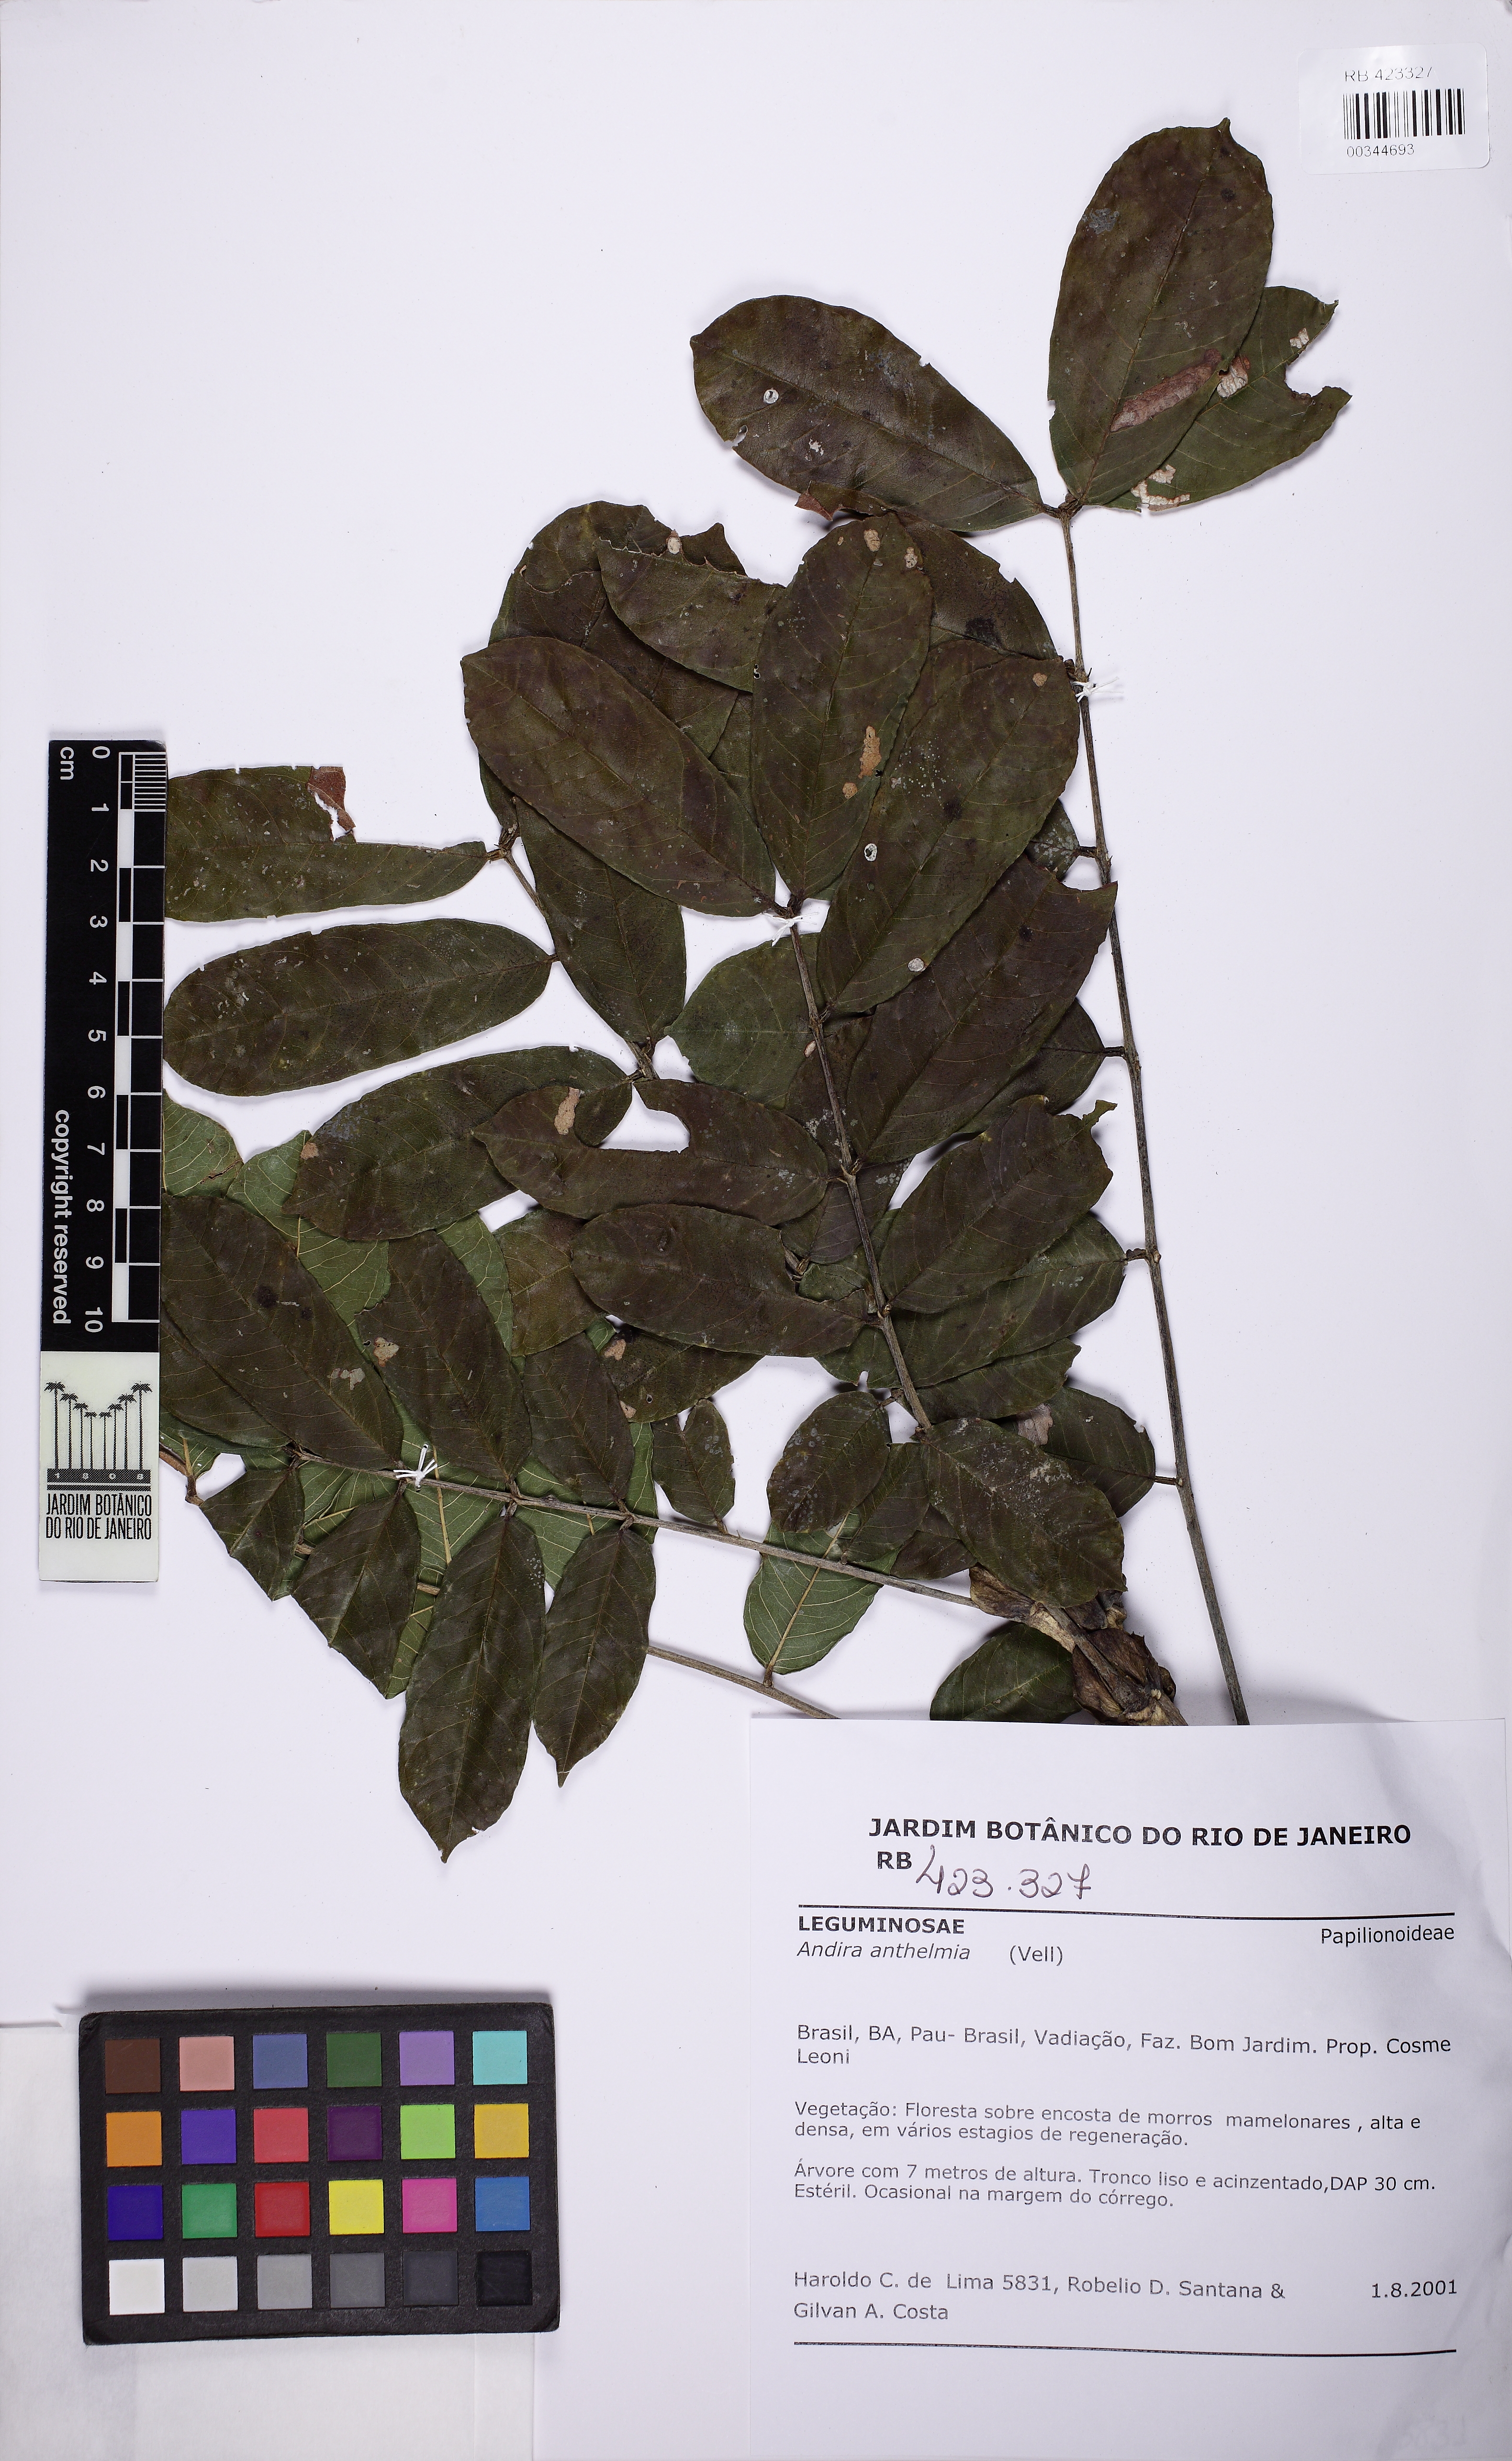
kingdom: Plantae
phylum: Tracheophyta
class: Magnoliopsida
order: Fabales
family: Fabaceae
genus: Andira
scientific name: Andira anthelmia
